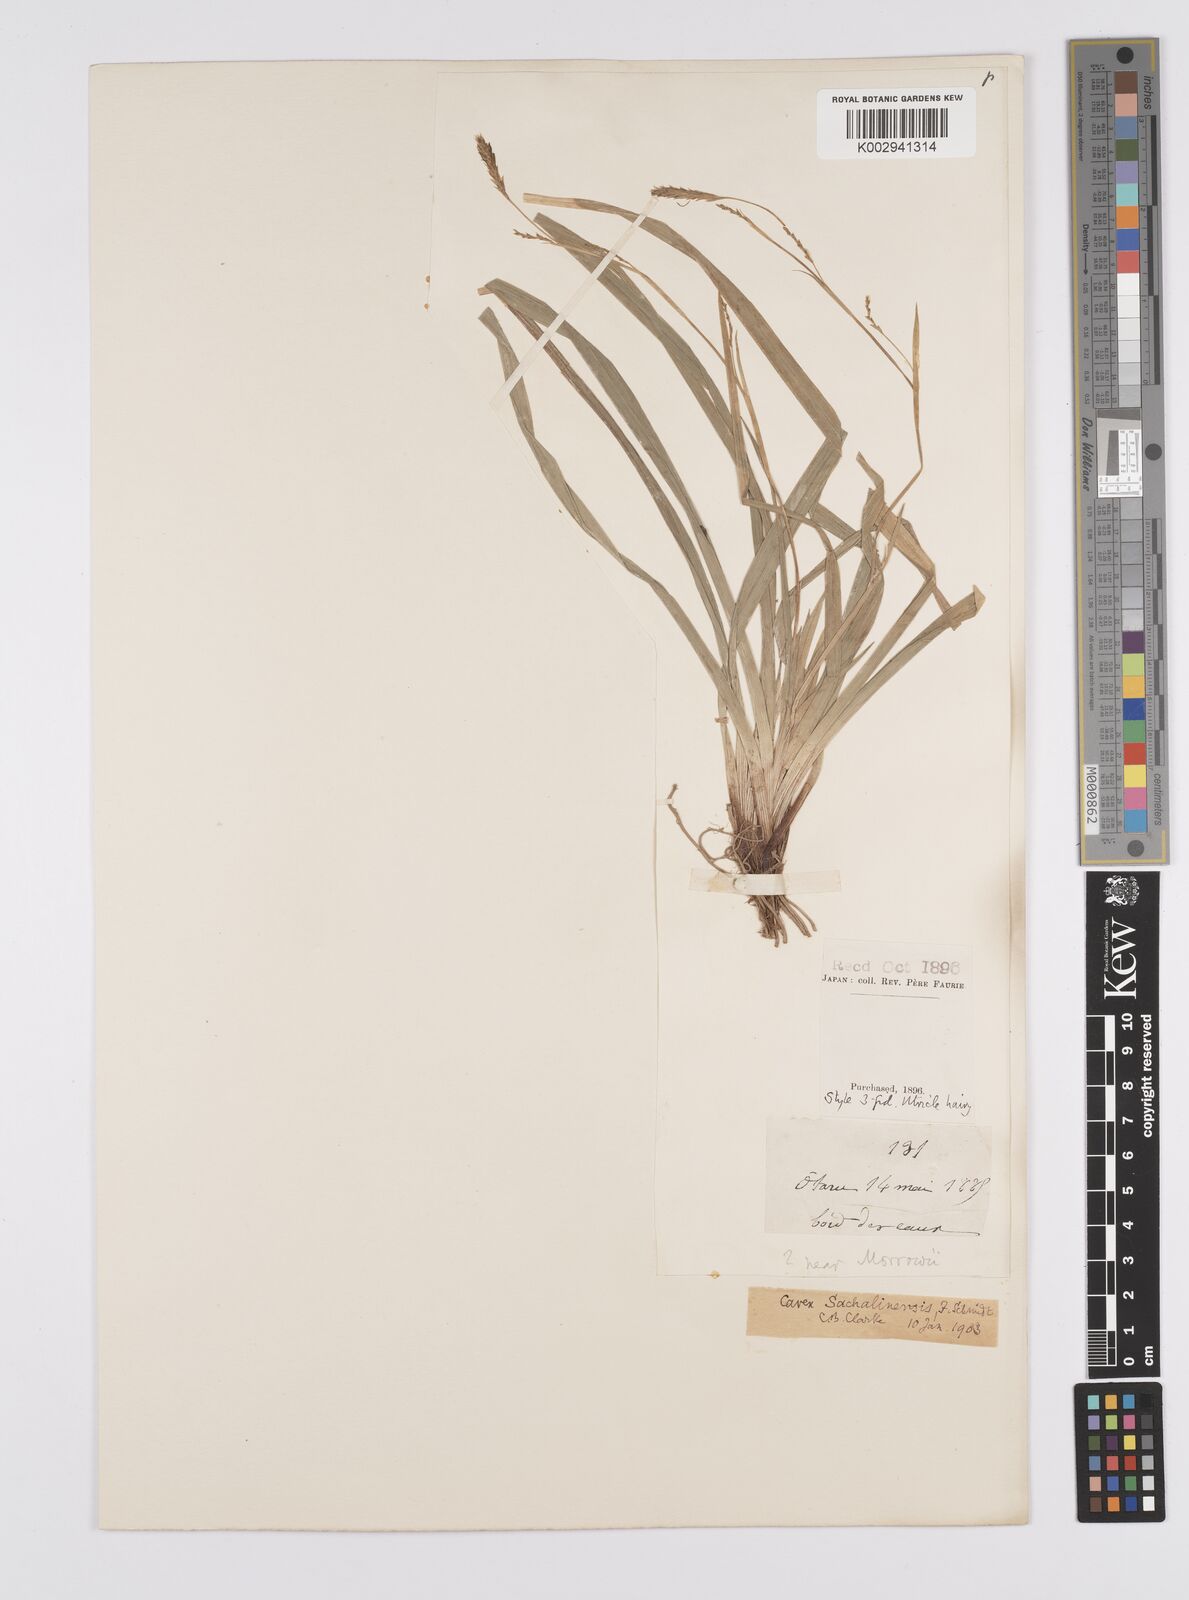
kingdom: Plantae
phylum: Tracheophyta
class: Liliopsida
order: Poales
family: Cyperaceae
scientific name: Cyperaceae
